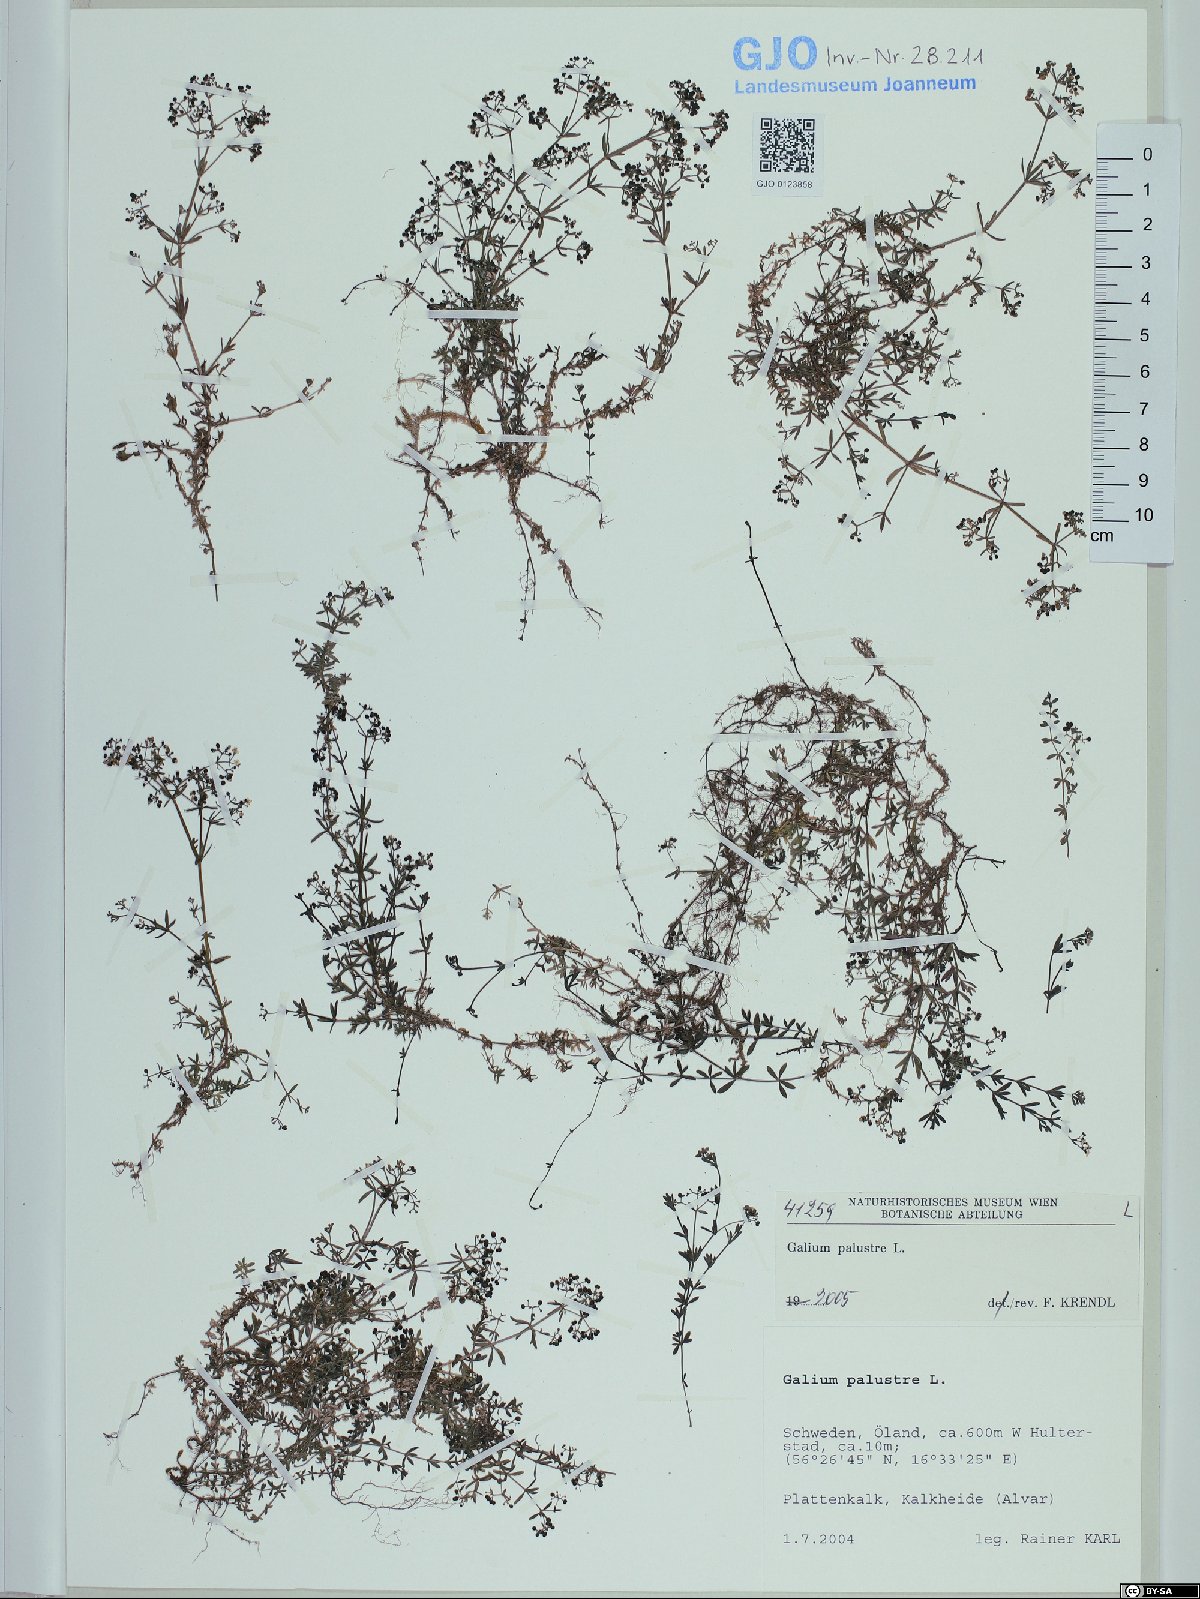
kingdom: Plantae
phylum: Tracheophyta
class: Magnoliopsida
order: Gentianales
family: Rubiaceae
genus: Galium
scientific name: Galium palustre
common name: Common marsh-bedstraw
